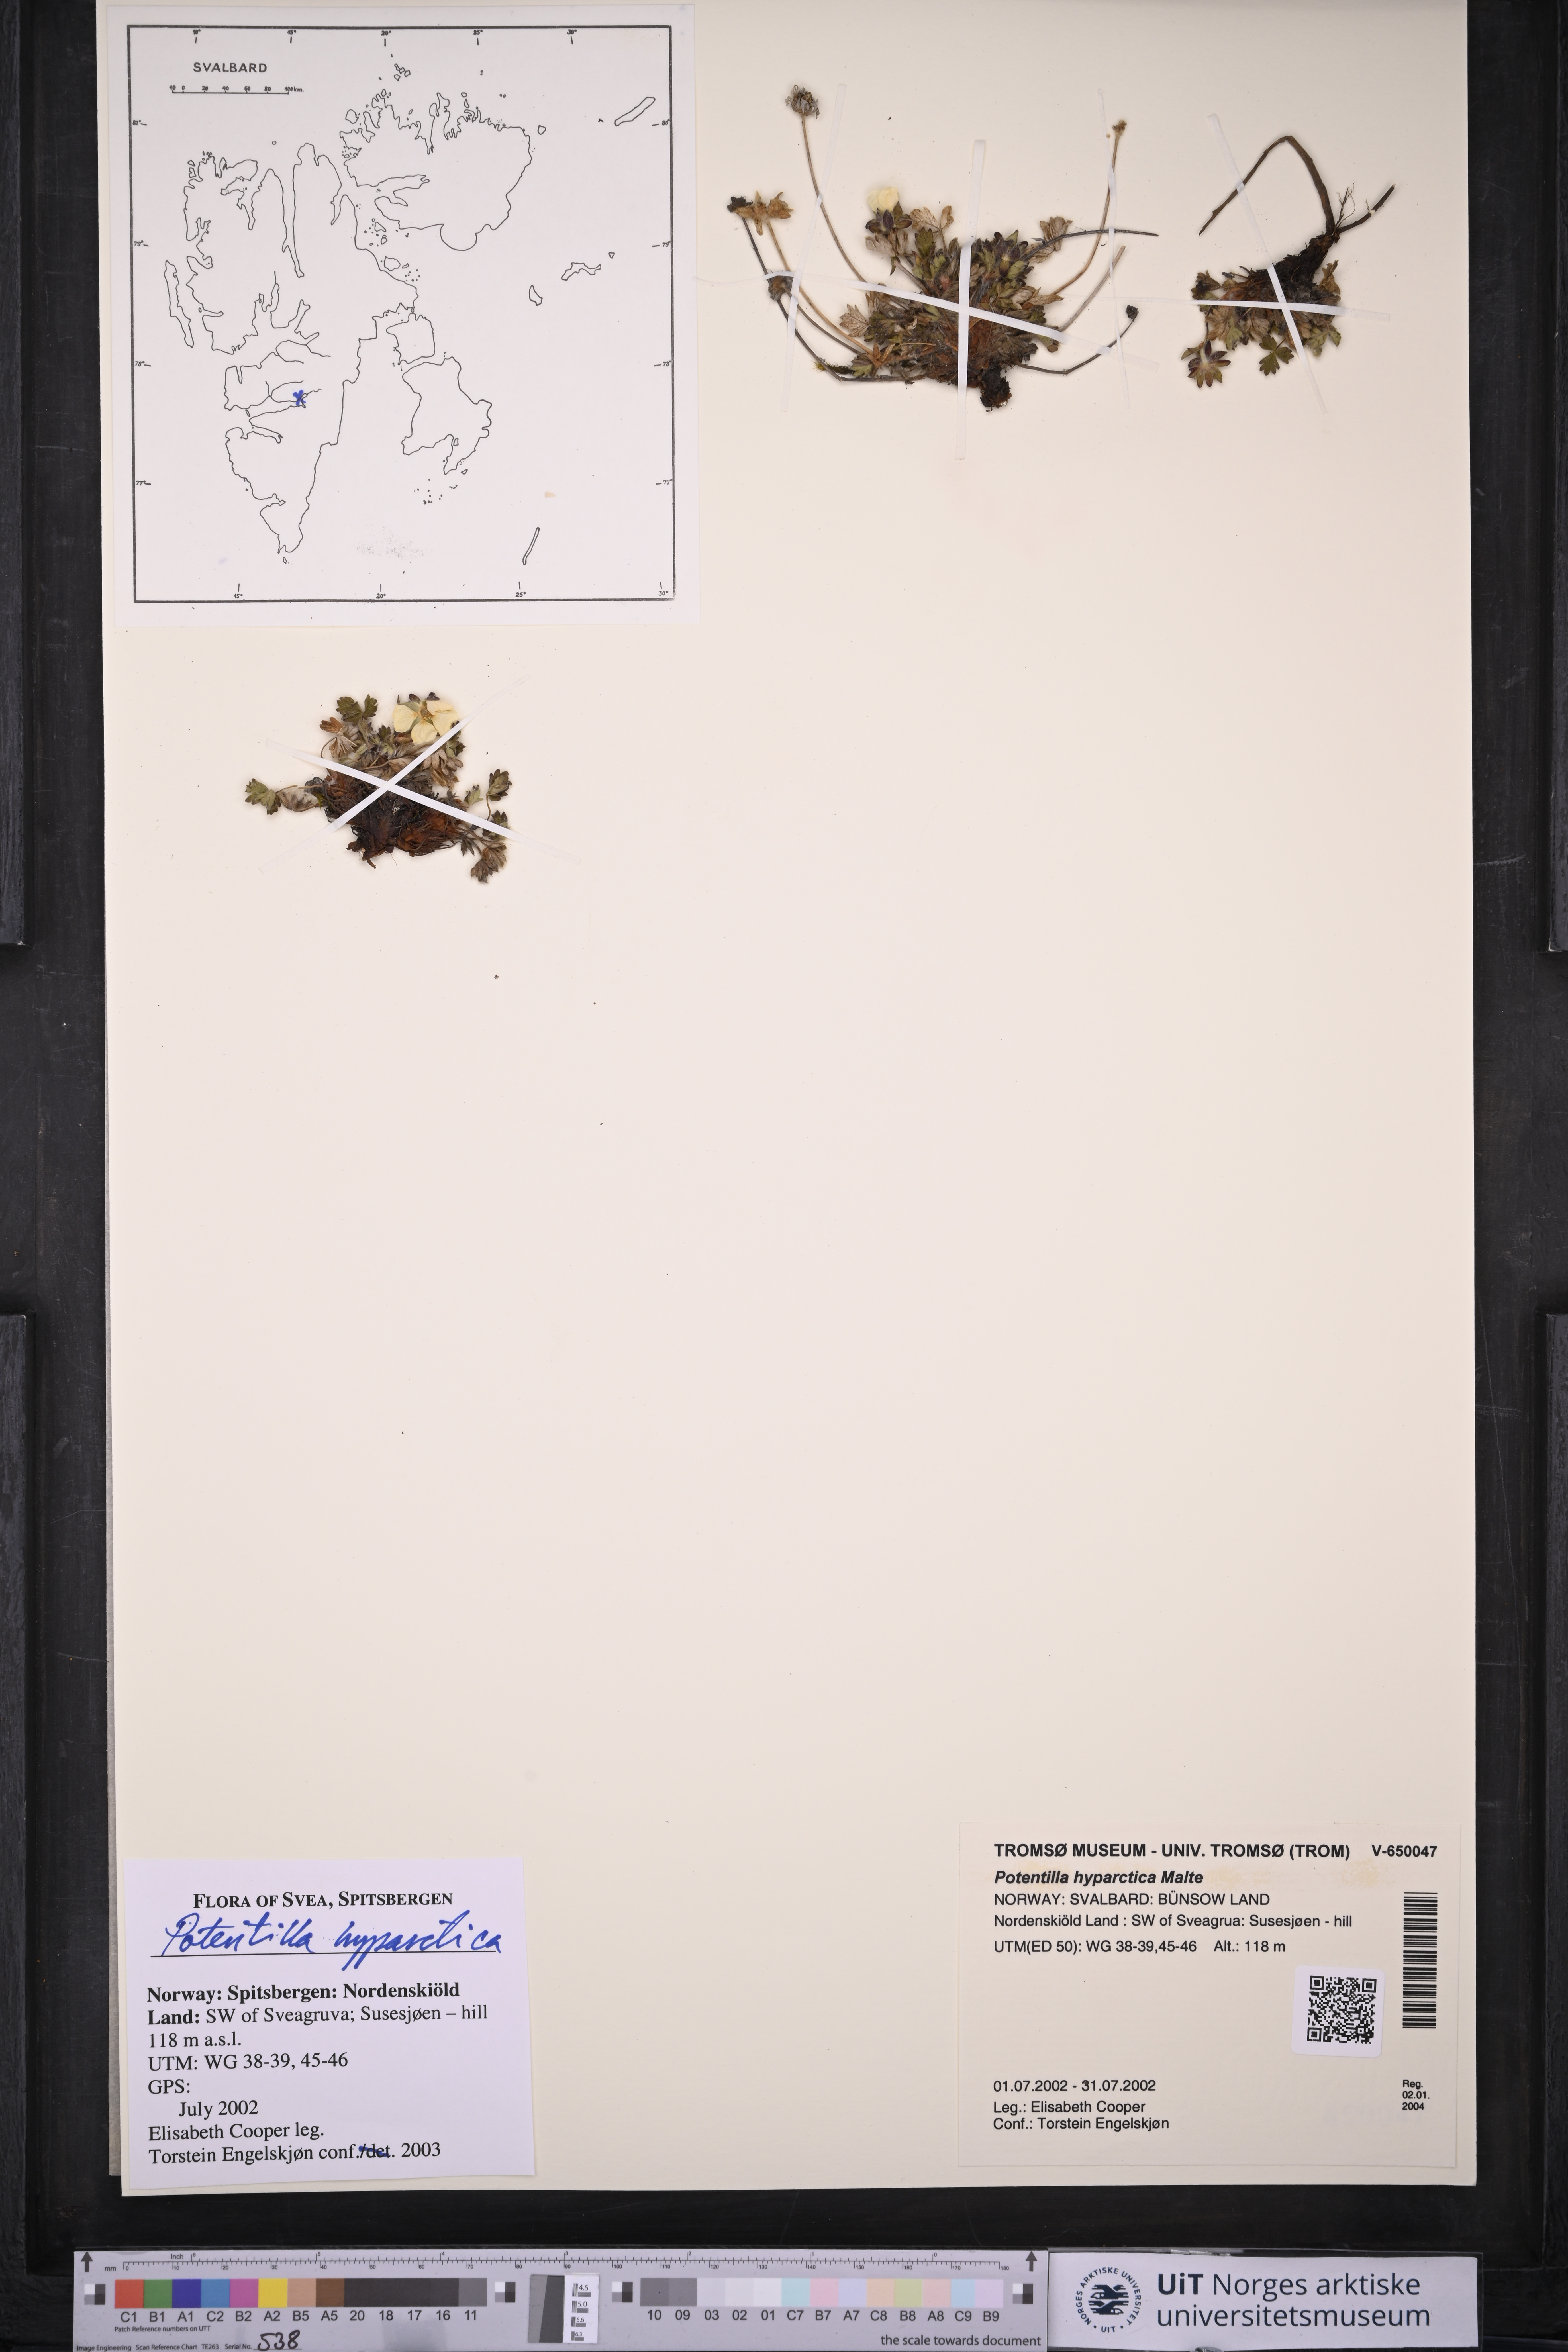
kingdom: Plantae
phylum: Tracheophyta
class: Magnoliopsida
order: Rosales
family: Rosaceae
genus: Potentilla
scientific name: Potentilla hyparctica
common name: Arctic cinquefoil
